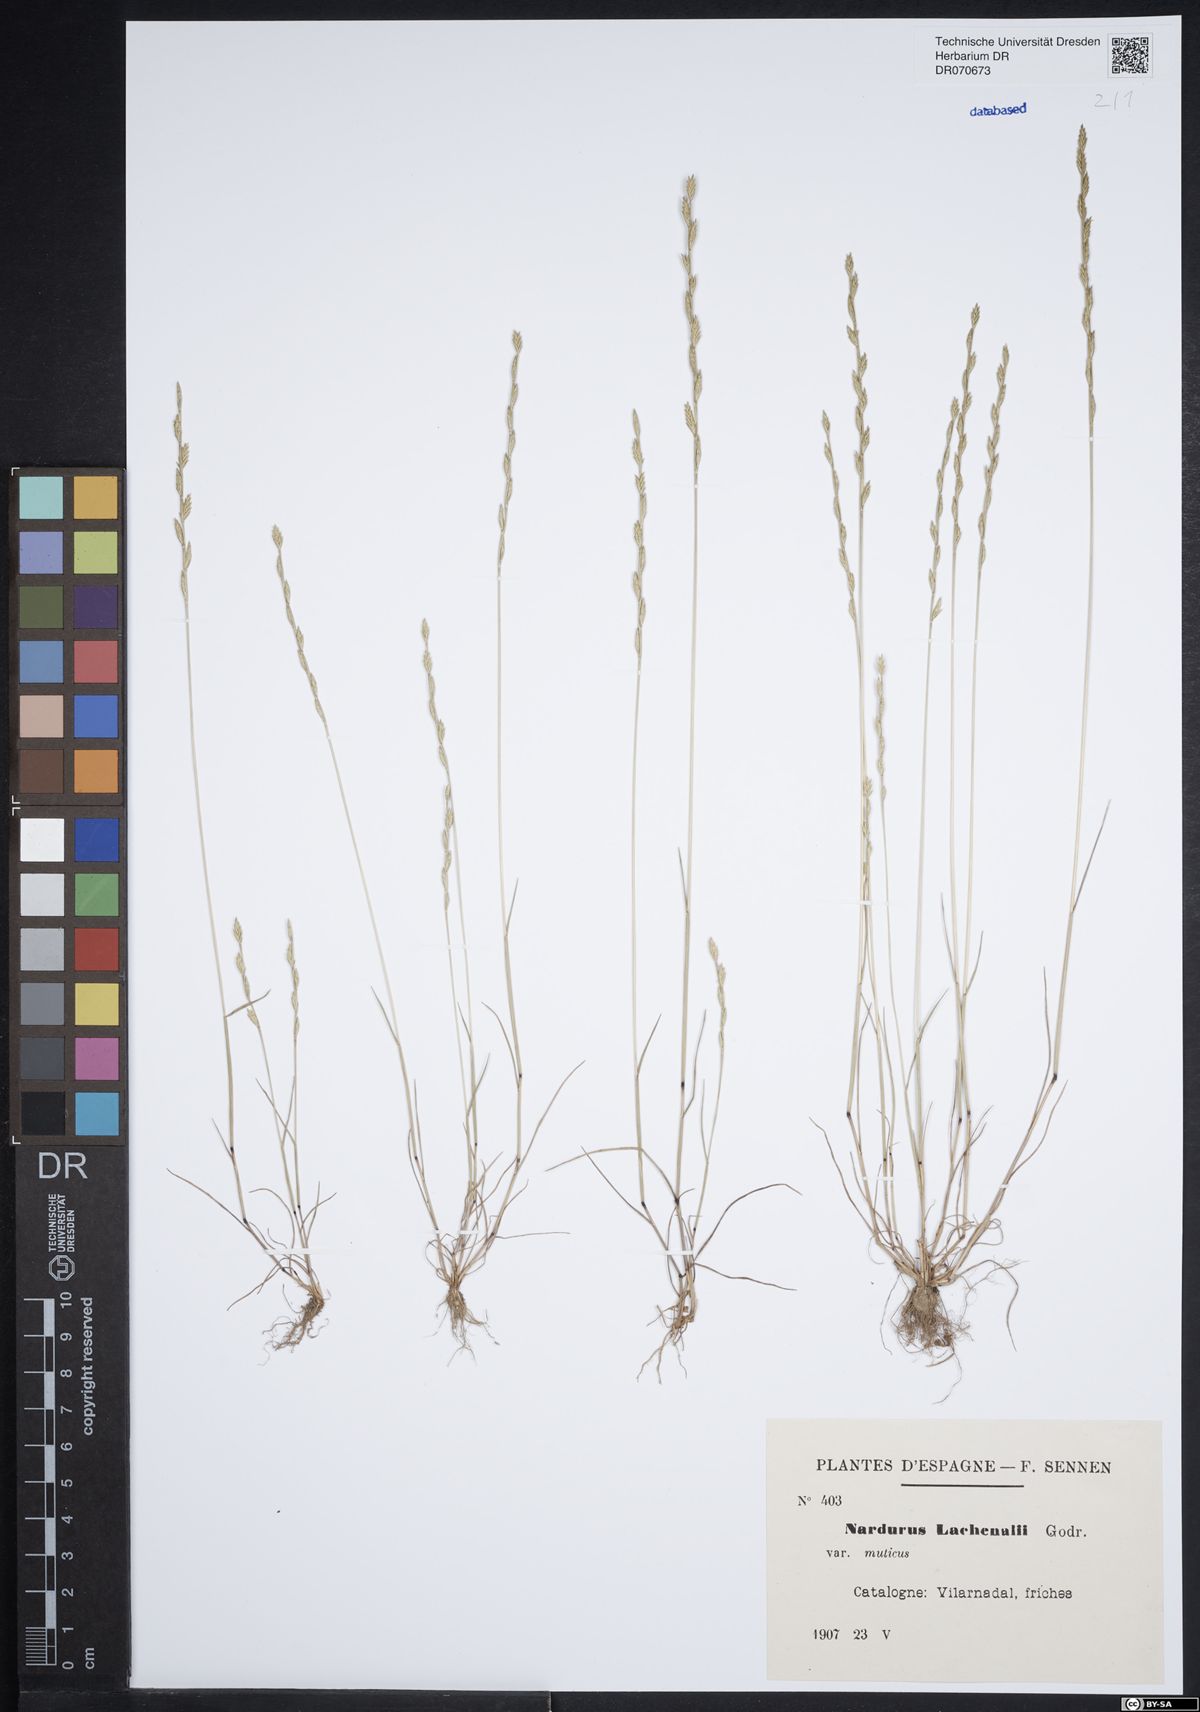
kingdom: Plantae
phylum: Tracheophyta
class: Liliopsida
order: Poales
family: Poaceae
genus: Festuca
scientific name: Festuca lachenalii
